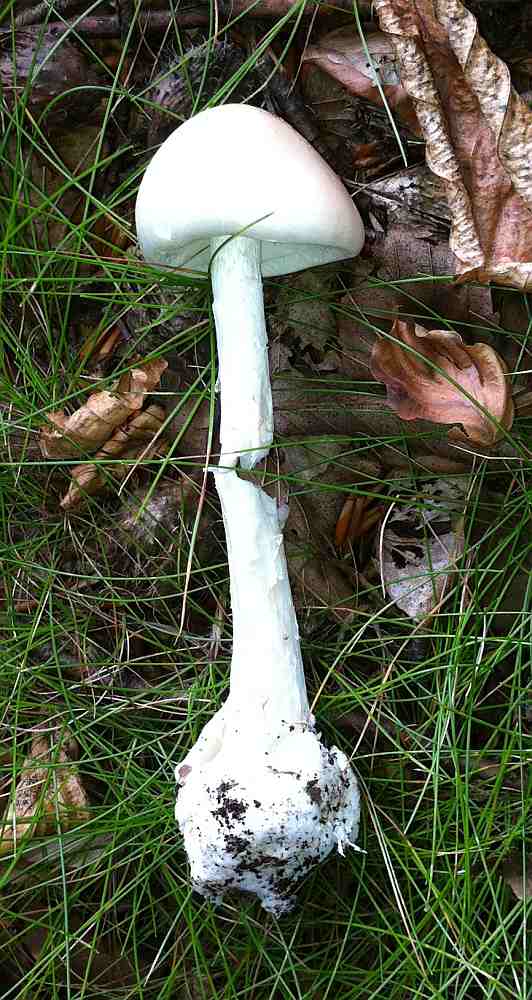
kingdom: Fungi
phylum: Basidiomycota
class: Agaricomycetes
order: Agaricales
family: Amanitaceae
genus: Amanita
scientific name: Amanita virosa
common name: snehvid fluesvamp
